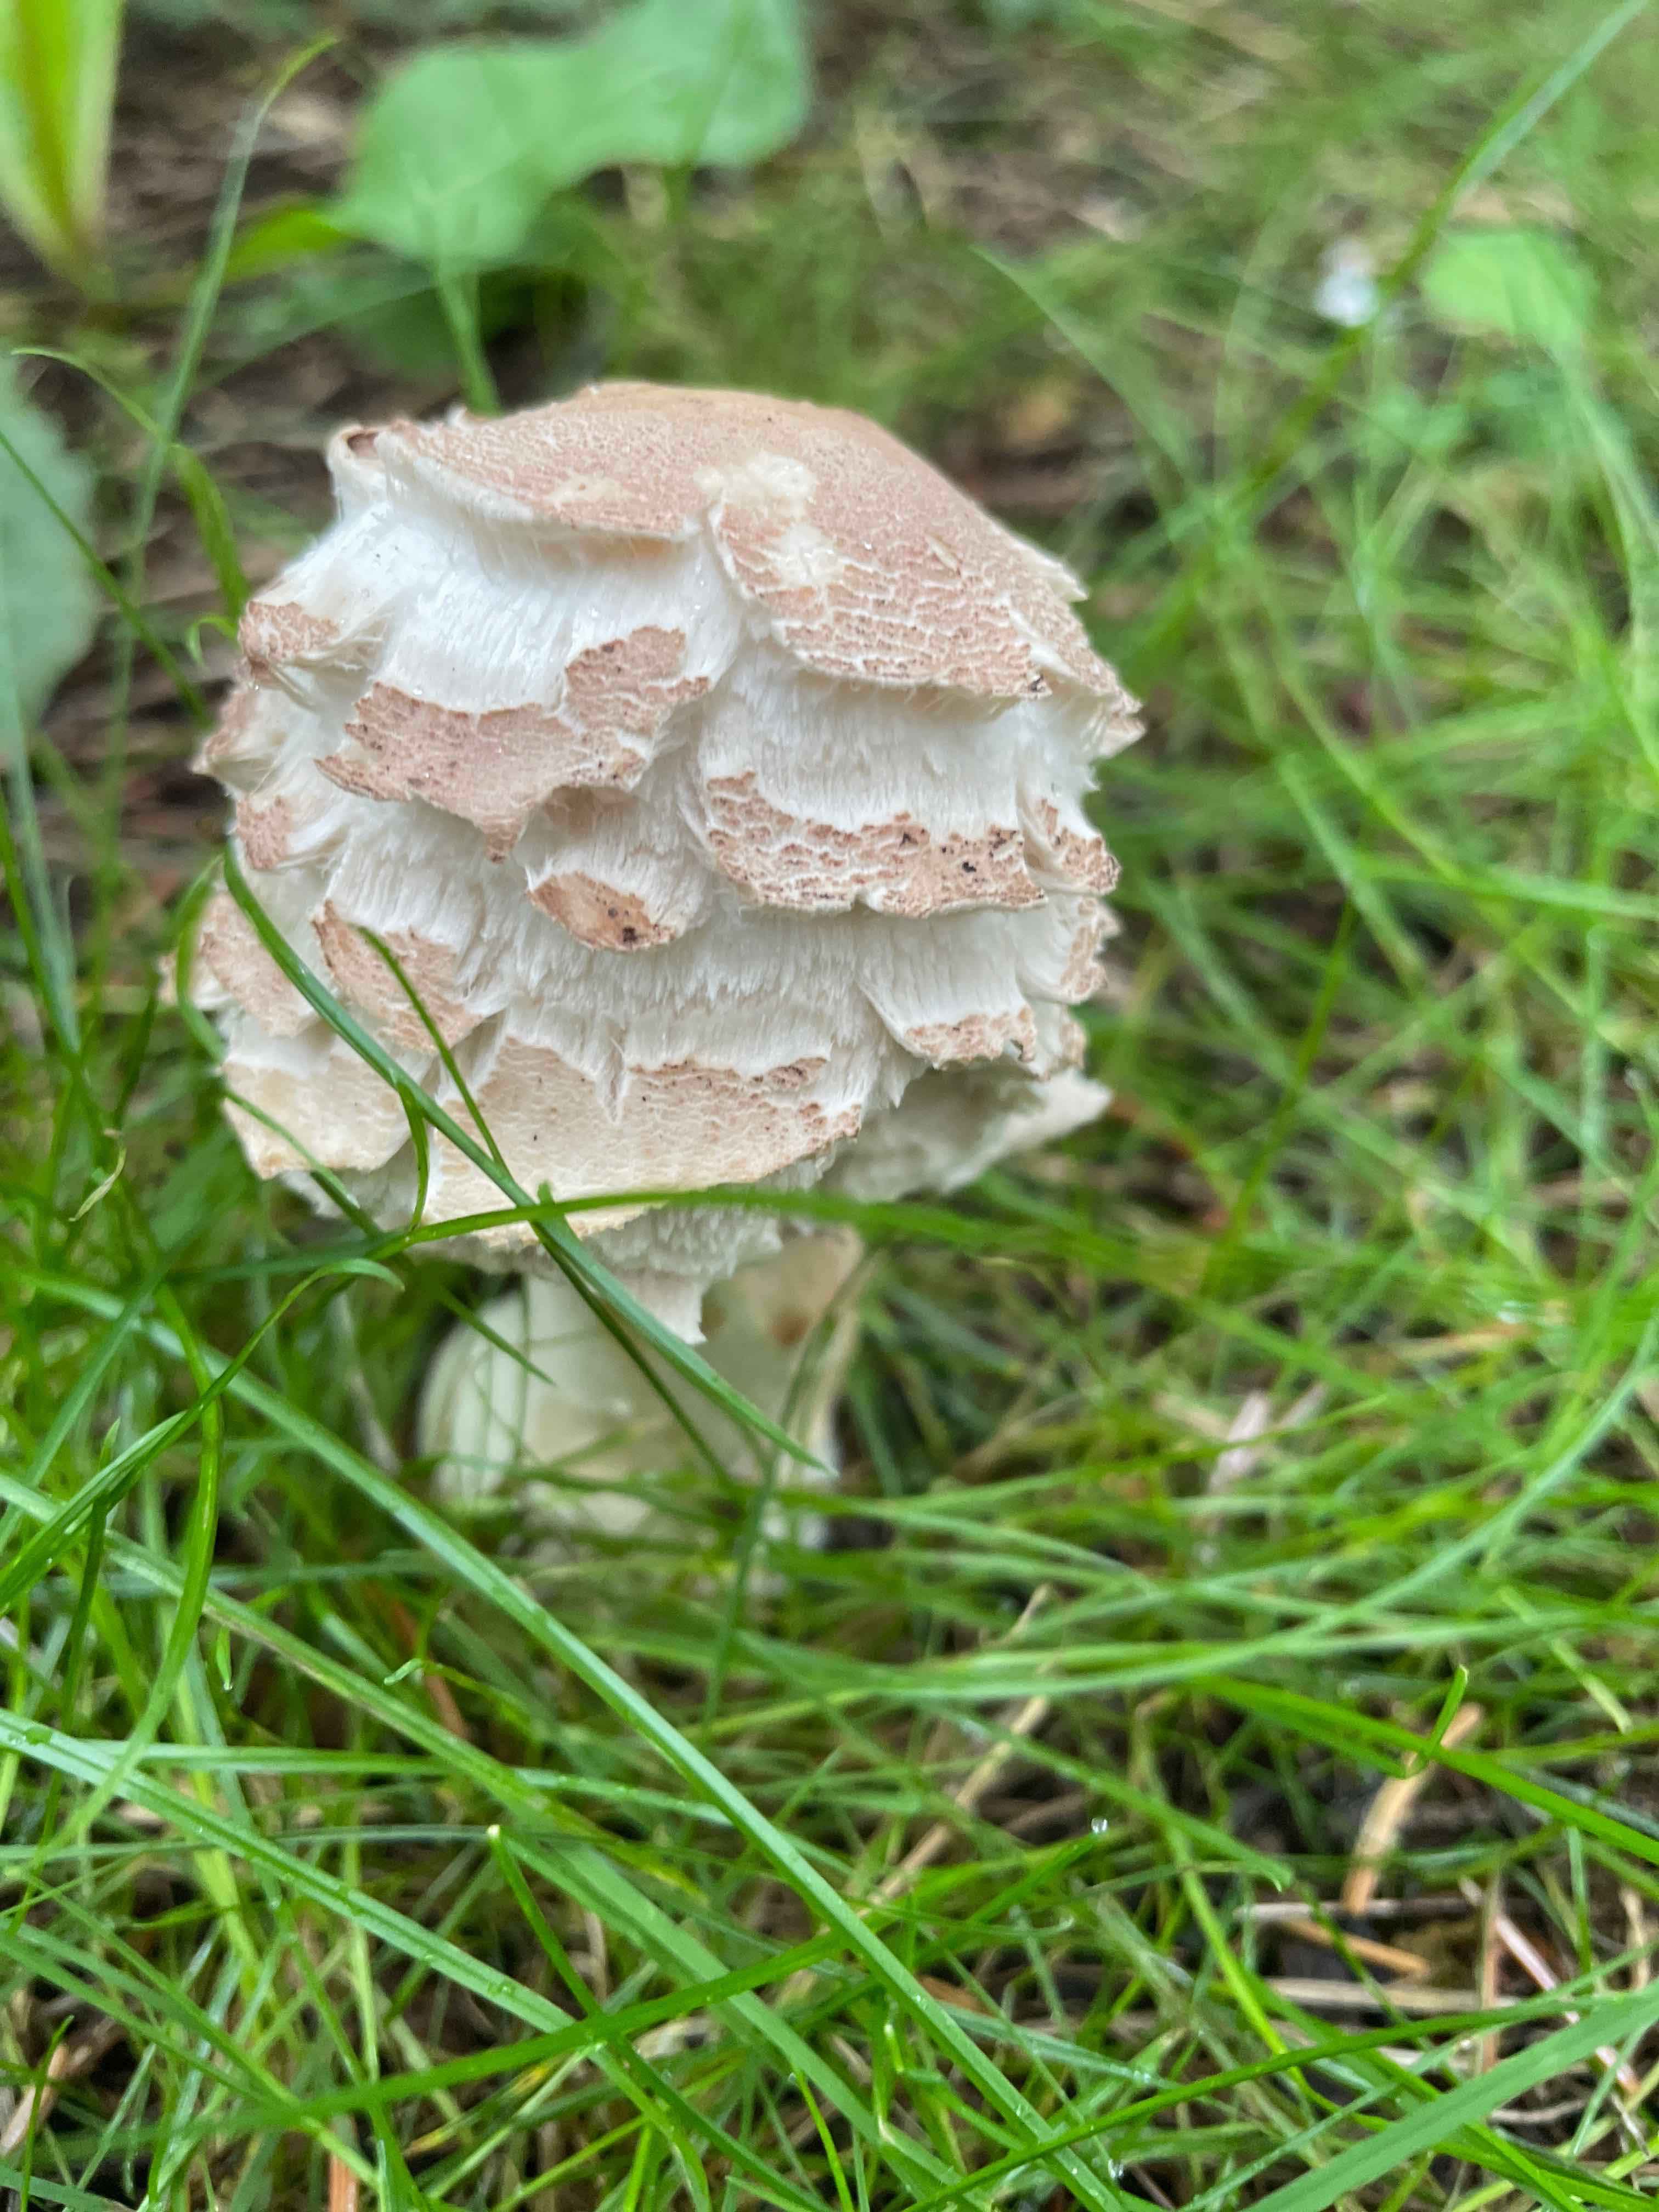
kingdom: Fungi
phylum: Basidiomycota
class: Agaricomycetes
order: Agaricales
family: Agaricaceae
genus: Chlorophyllum
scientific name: Chlorophyllum rhacodes
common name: ægte rabarberhat
